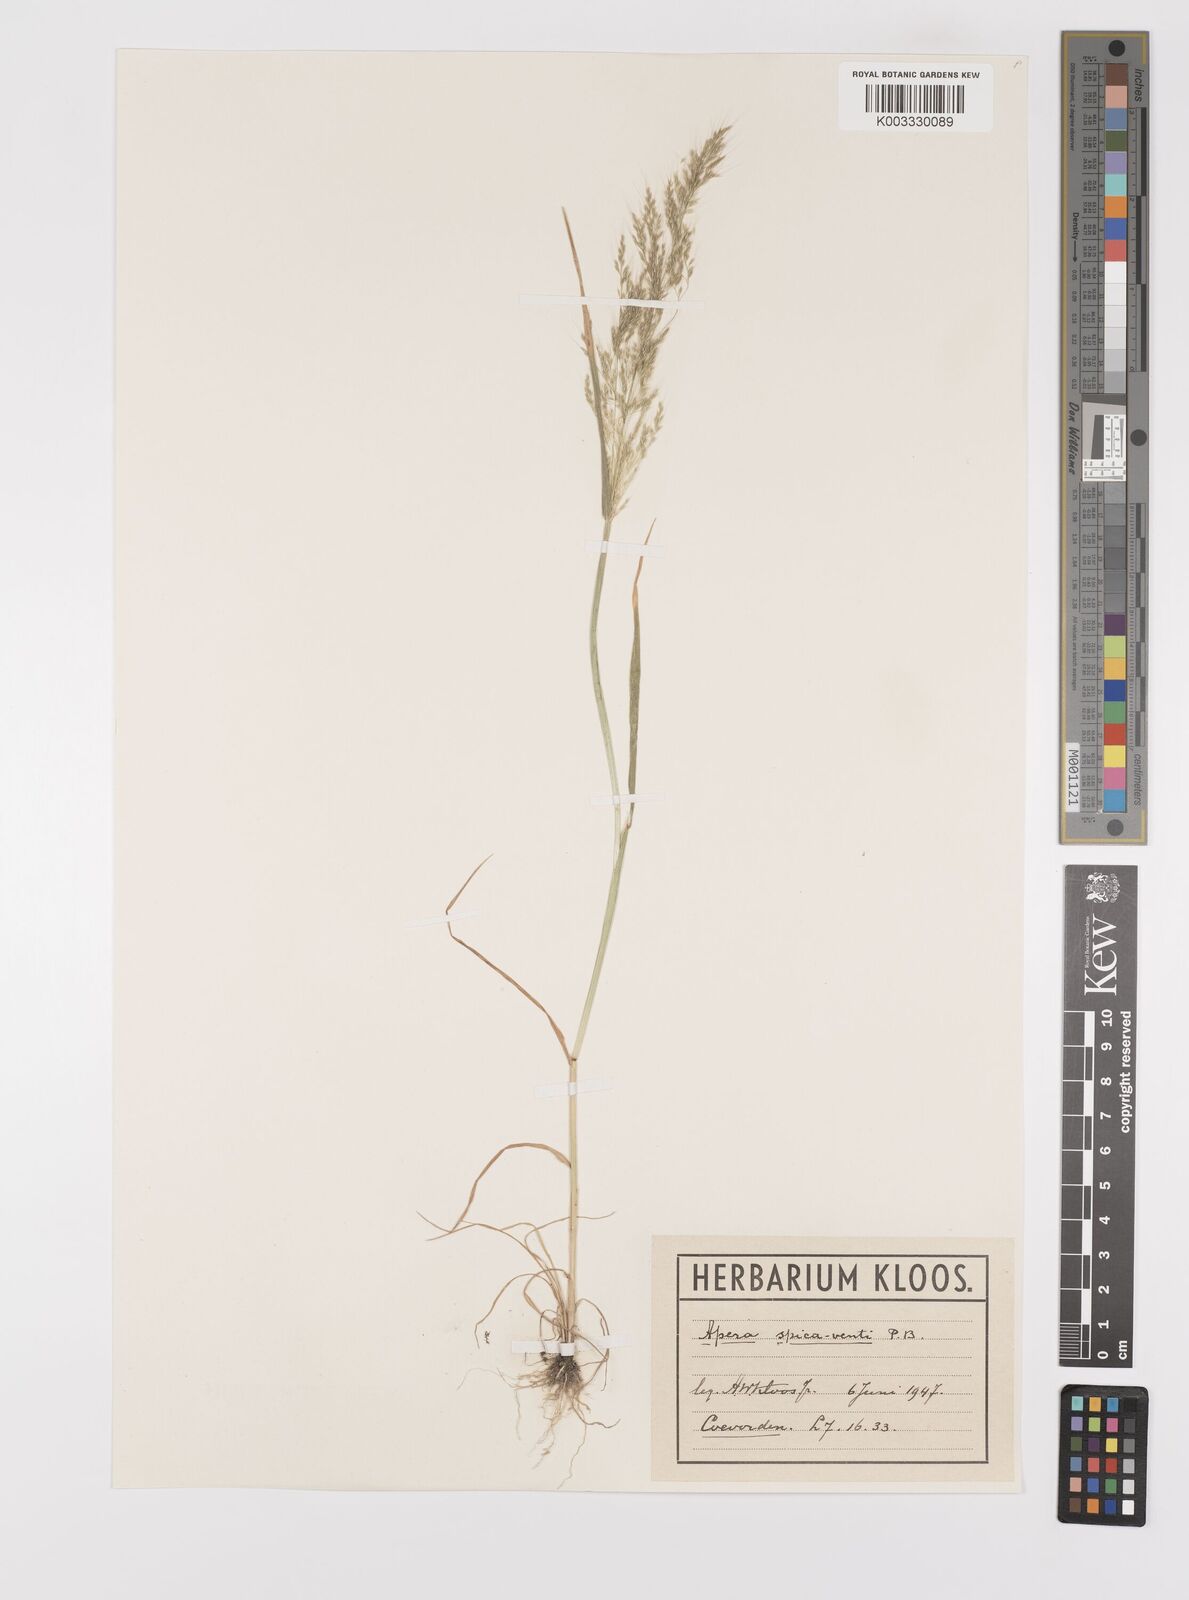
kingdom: Plantae
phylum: Tracheophyta
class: Liliopsida
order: Poales
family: Poaceae
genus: Apera
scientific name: Apera spica-venti
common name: Loose silky-bent
